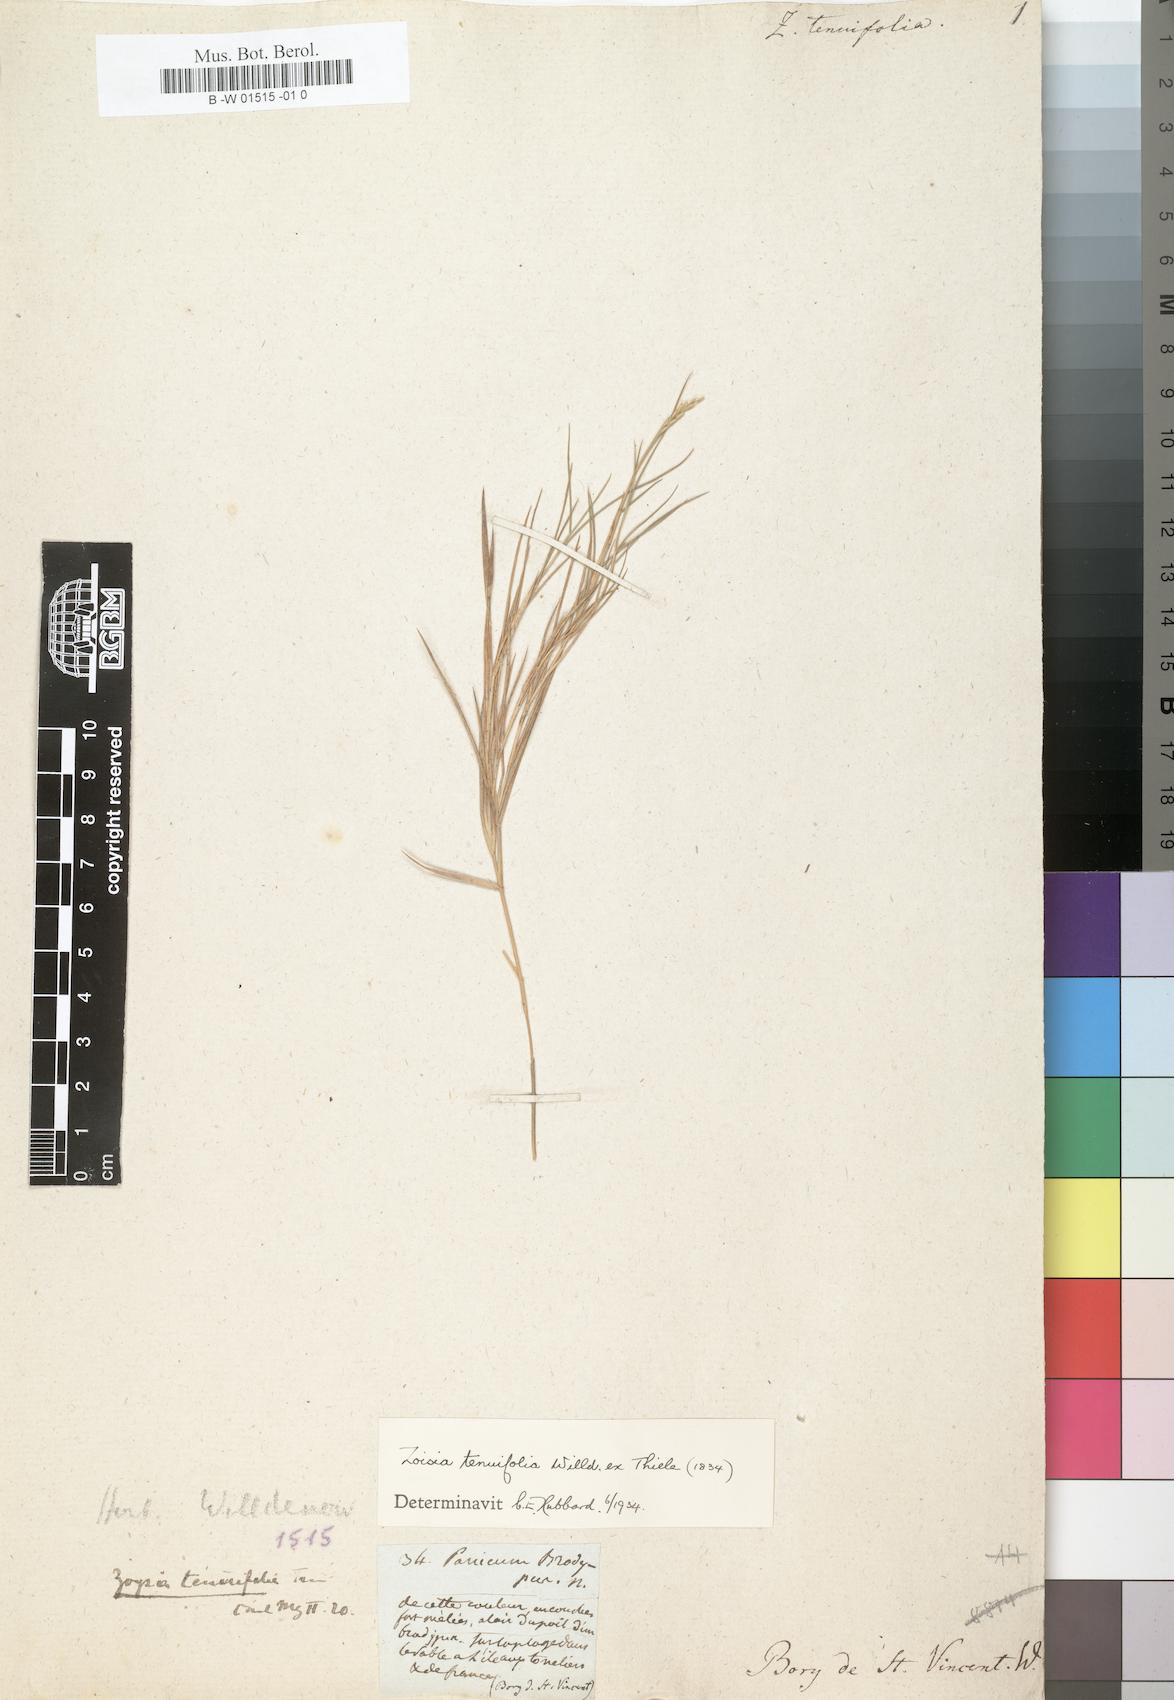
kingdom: Plantae
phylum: Tracheophyta
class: Liliopsida
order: Poales
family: Poaceae
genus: Zoysia
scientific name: Zoysia matrella
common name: Manila grass
